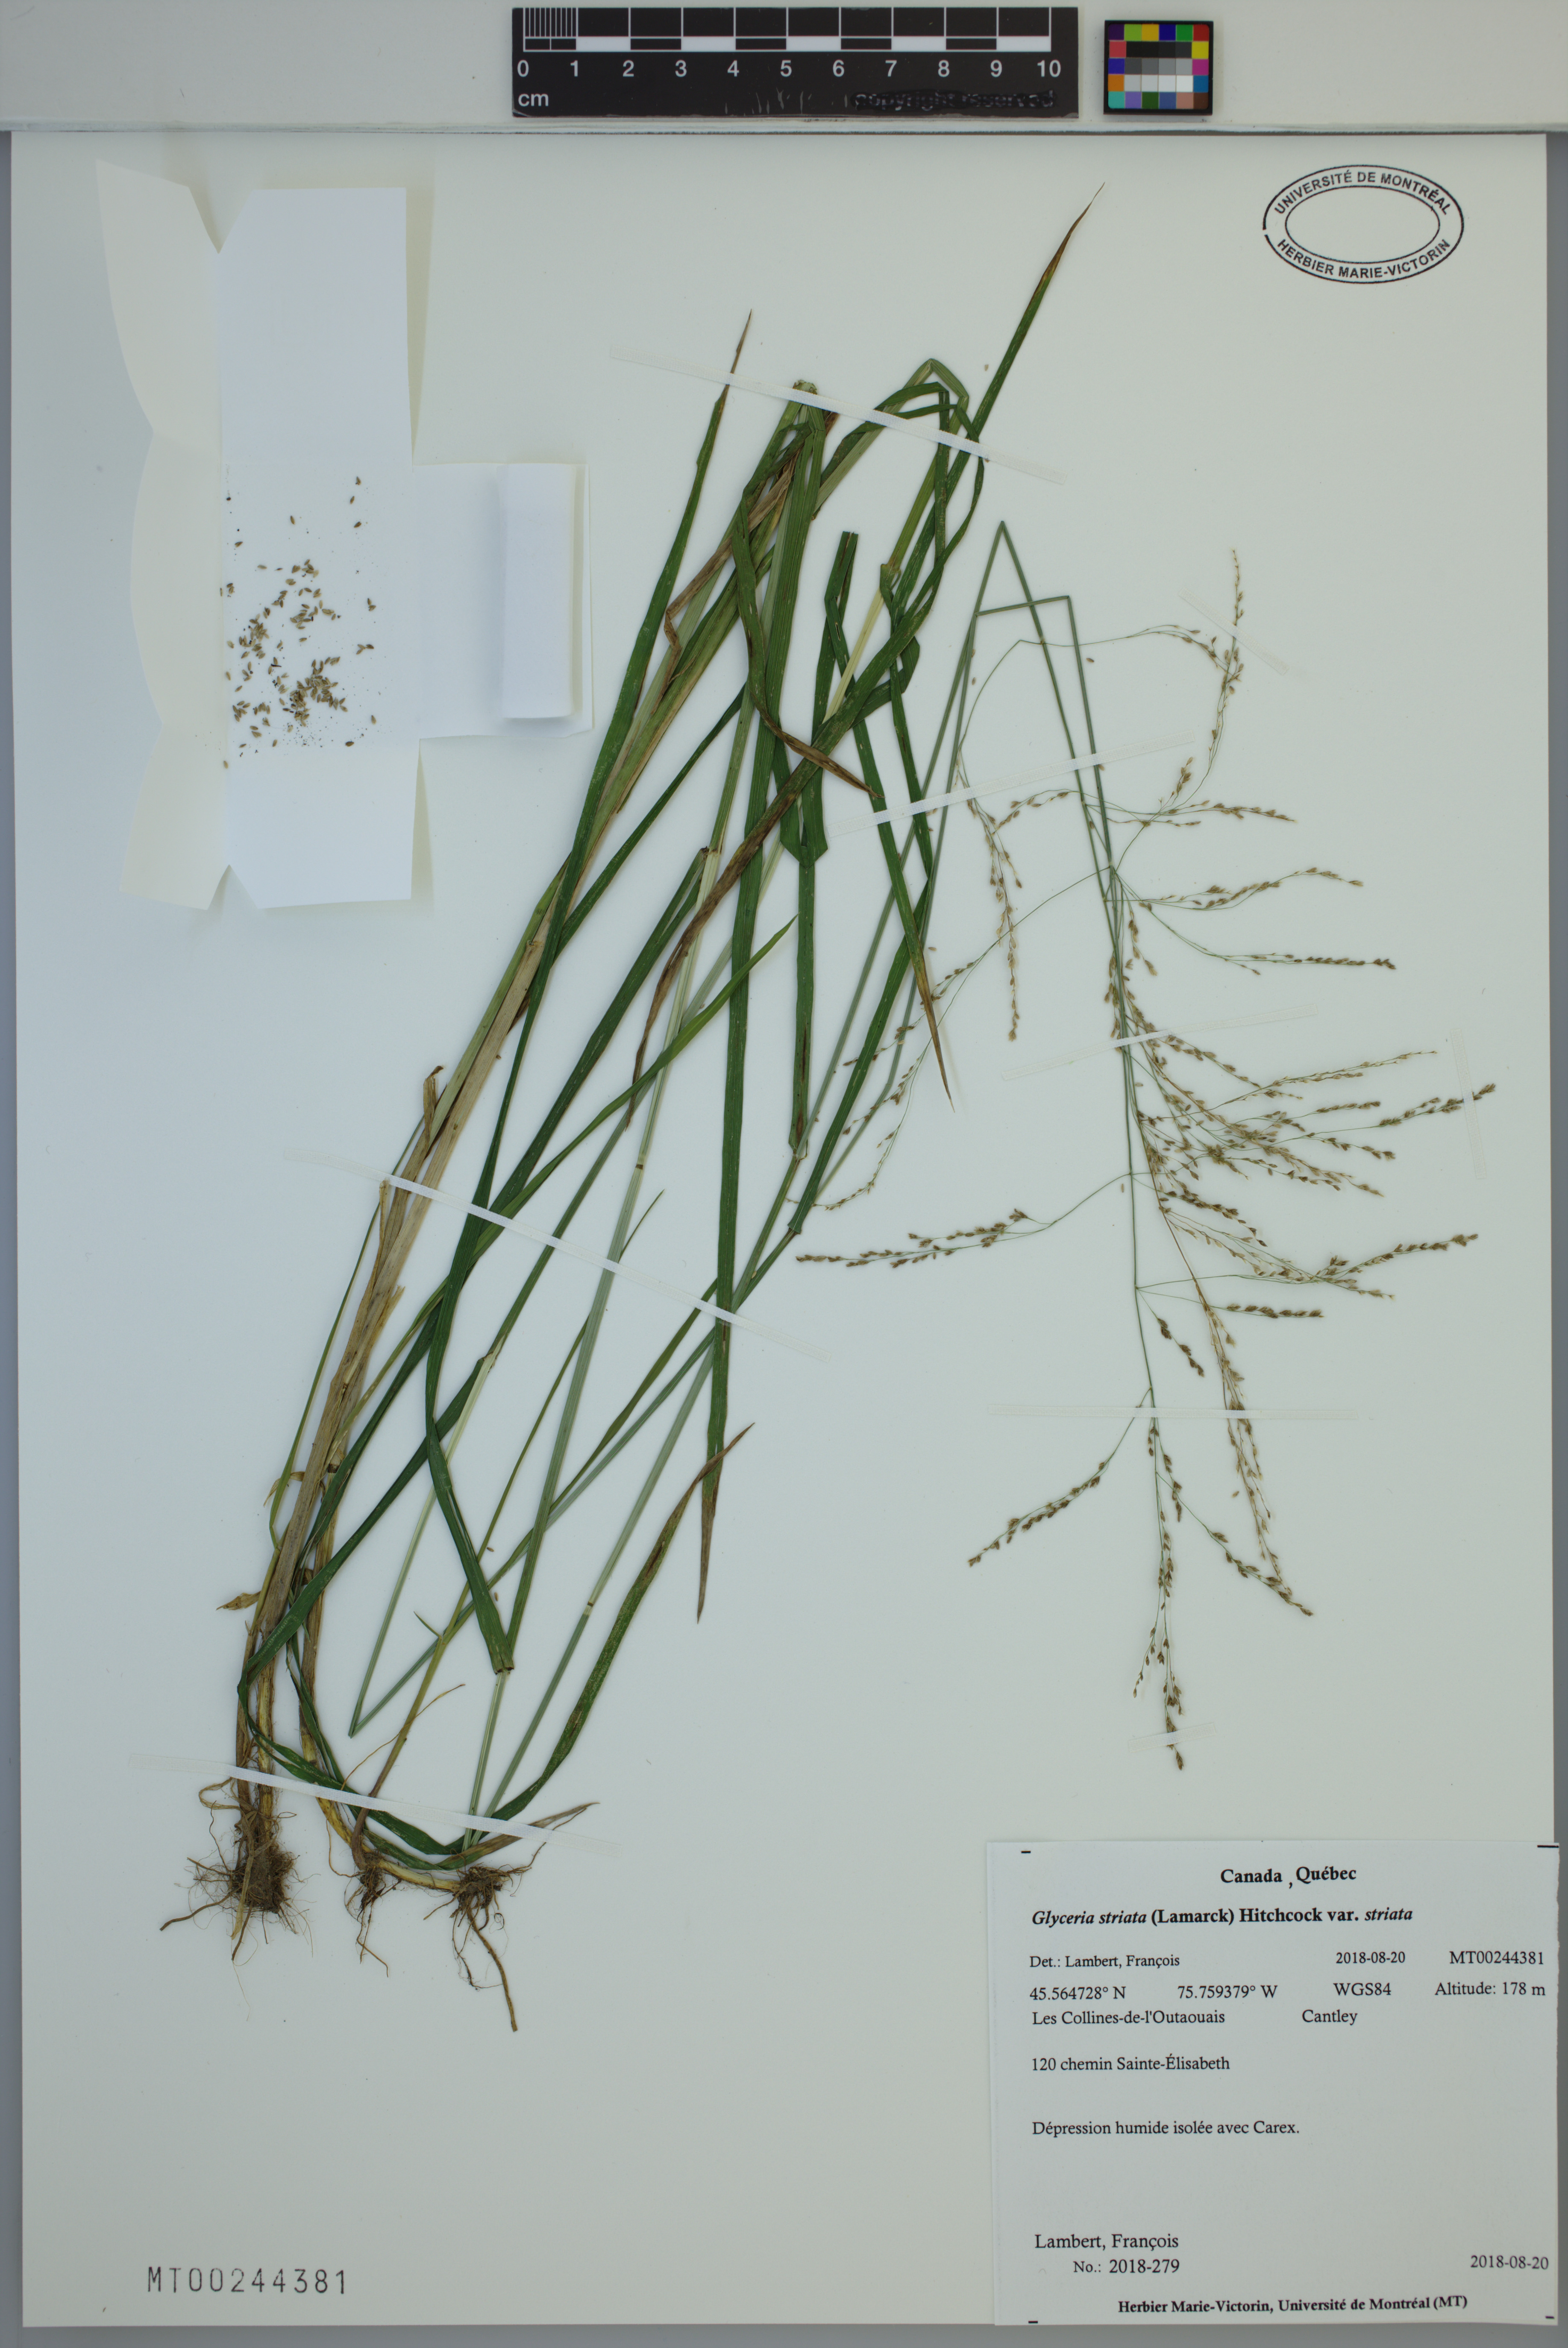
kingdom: Plantae
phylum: Tracheophyta
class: Liliopsida
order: Poales
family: Poaceae
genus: Glyceria
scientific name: Glyceria striata
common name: Fowl manna grass
